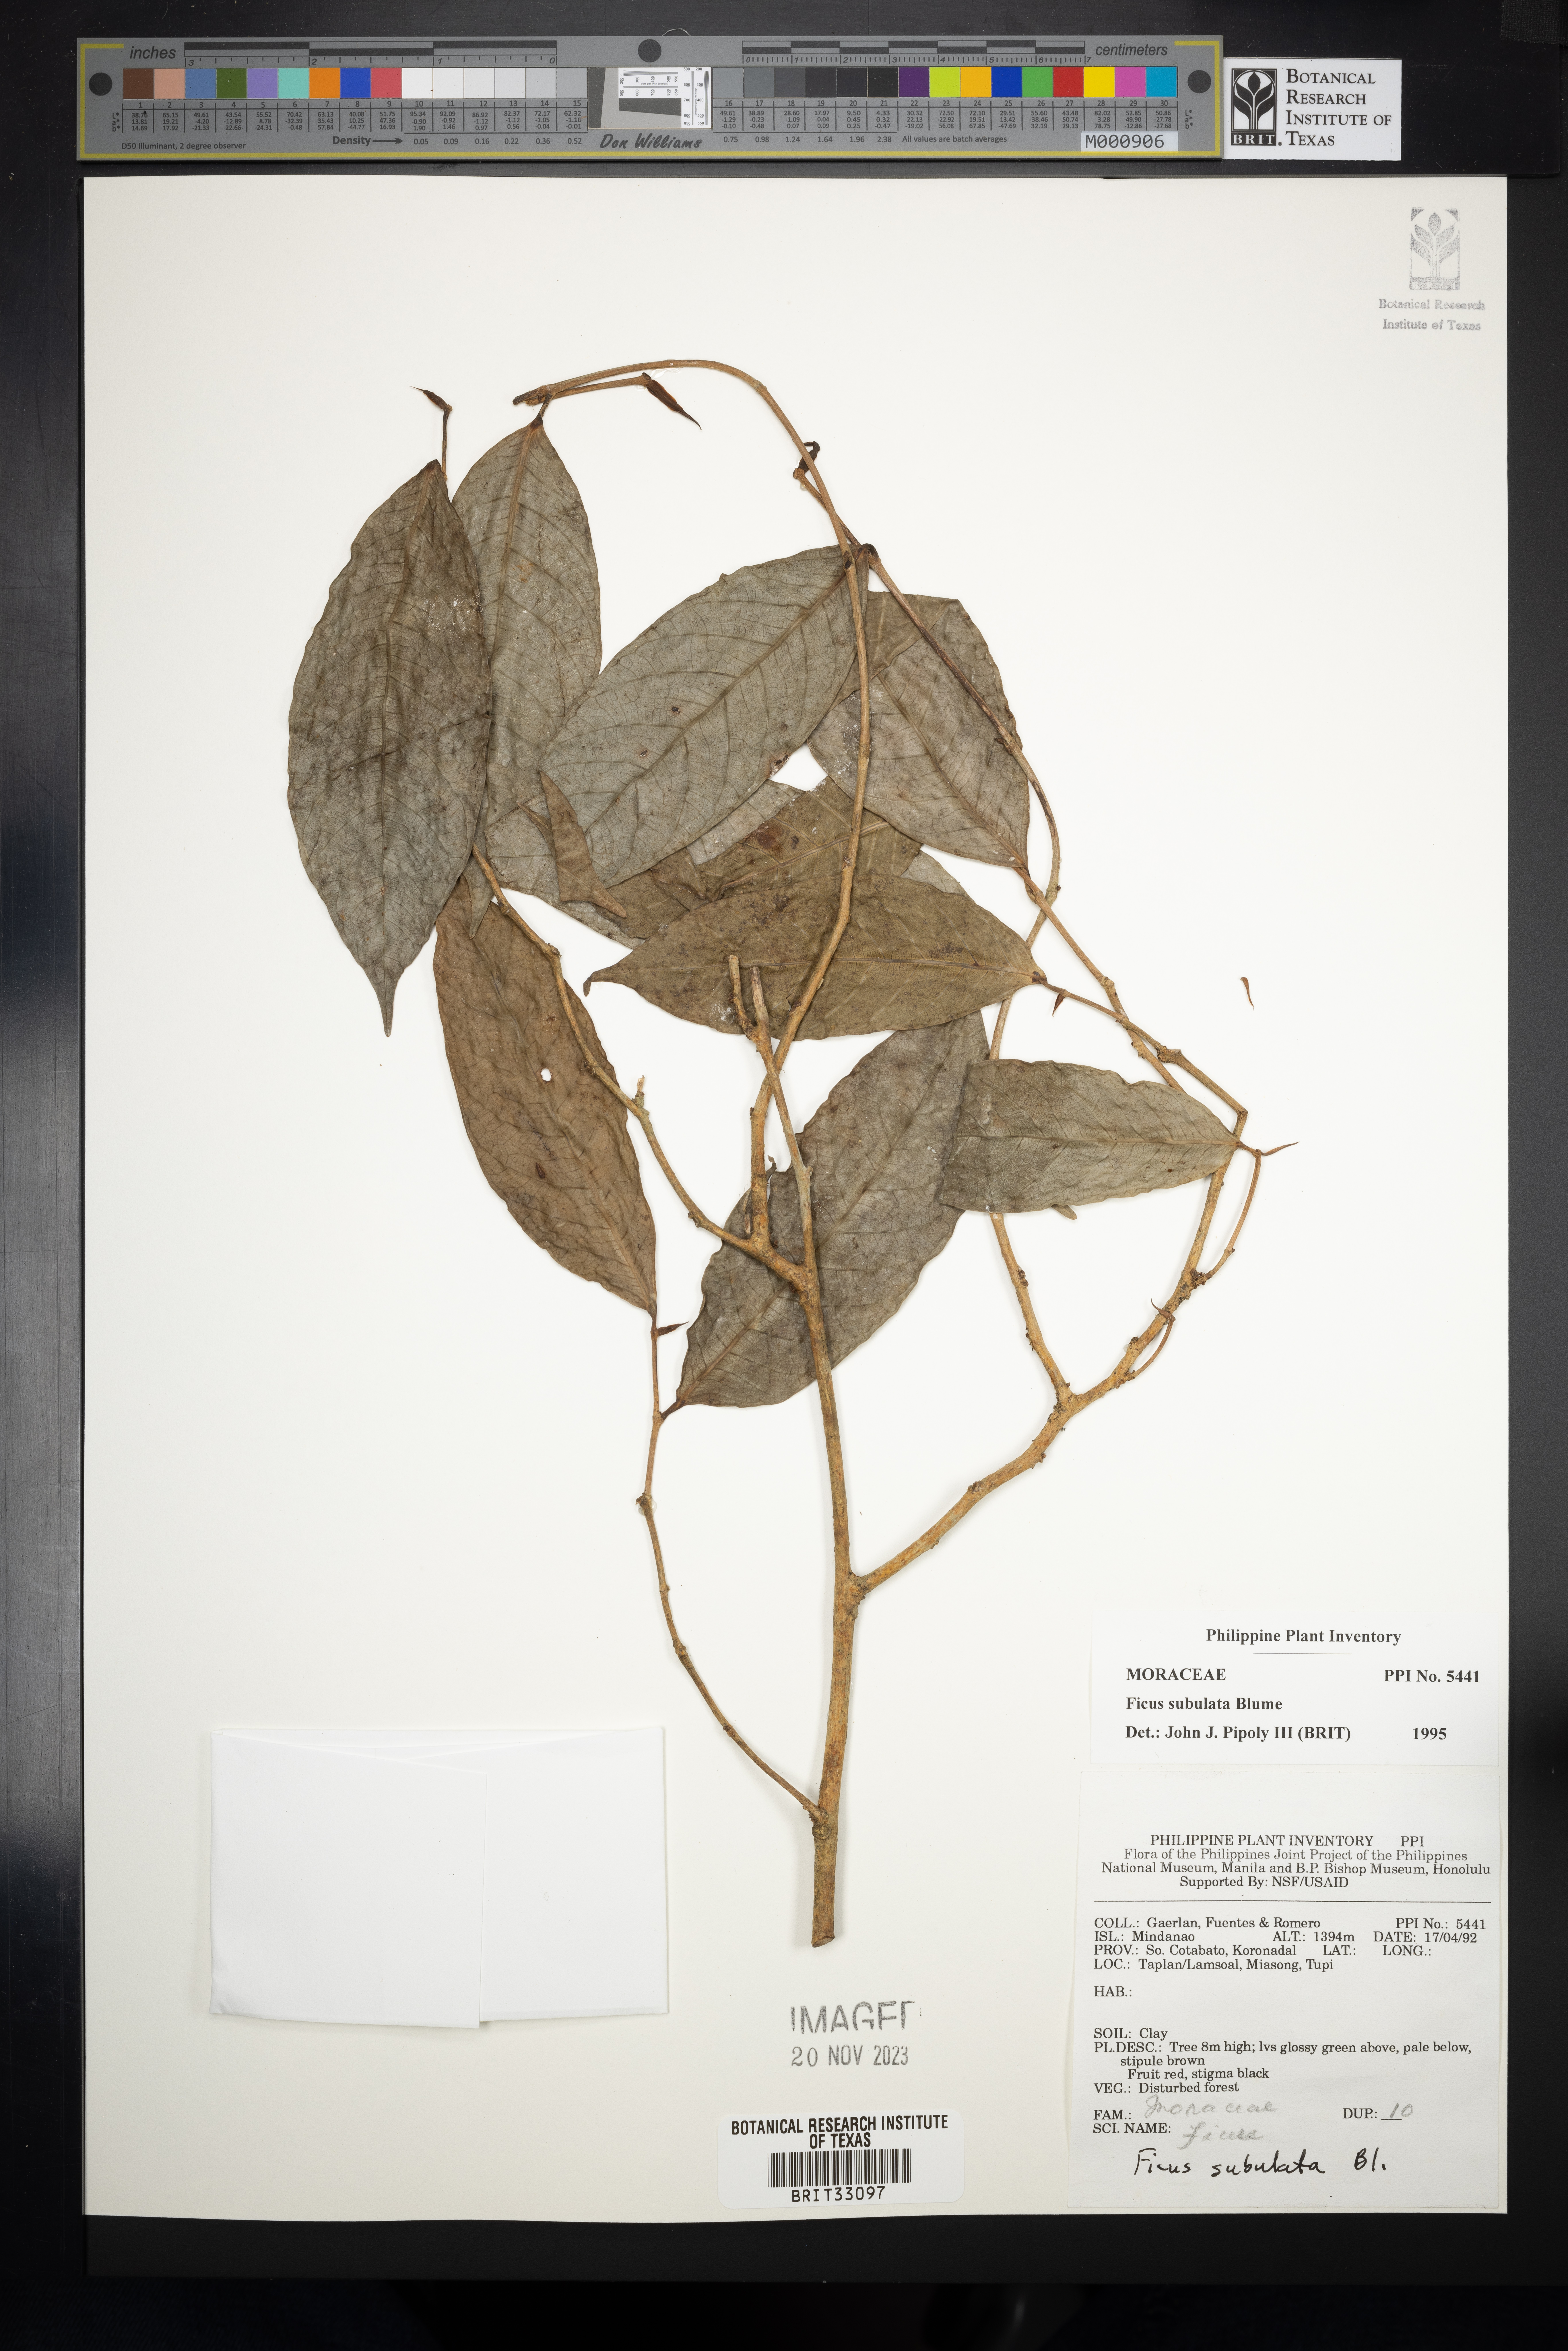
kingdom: Plantae
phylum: Tracheophyta
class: Magnoliopsida
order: Rosales
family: Moraceae
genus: Ficus
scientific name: Ficus subulata
